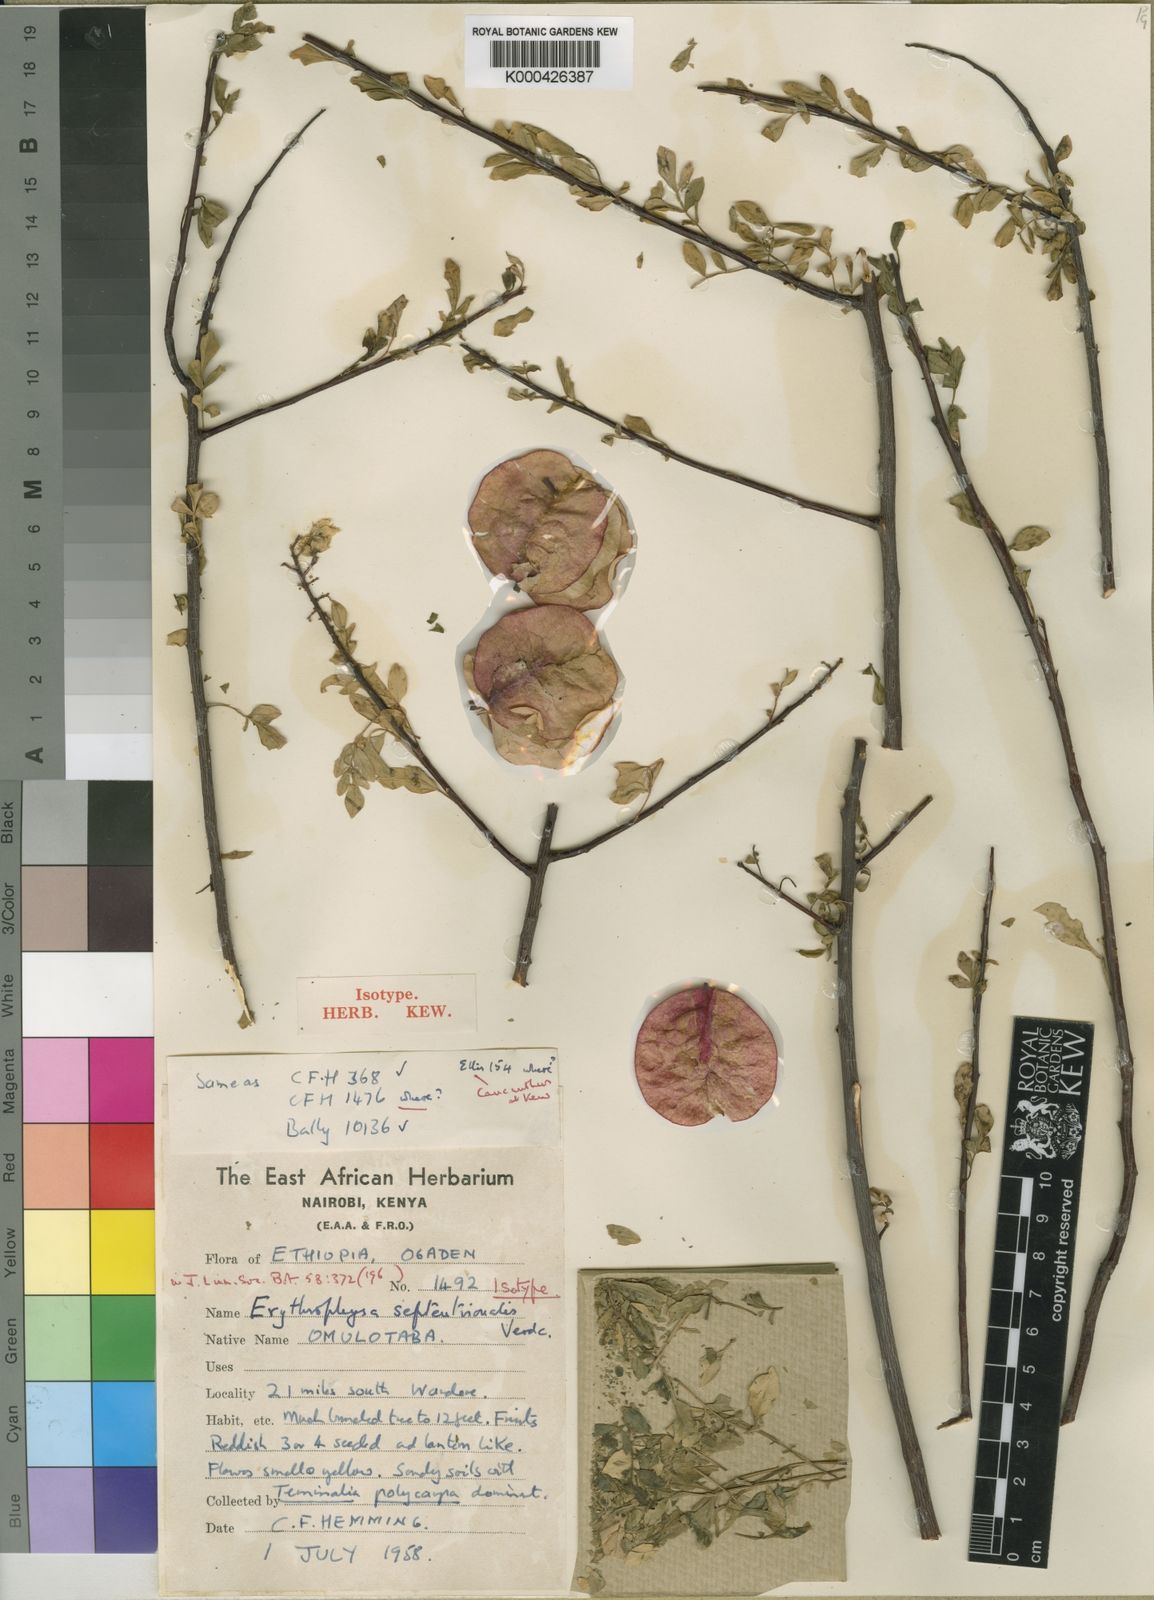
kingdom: Plantae
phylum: Tracheophyta
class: Magnoliopsida
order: Sapindales
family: Sapindaceae
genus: Erythrophysa
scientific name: Erythrophysa septentrionalis
